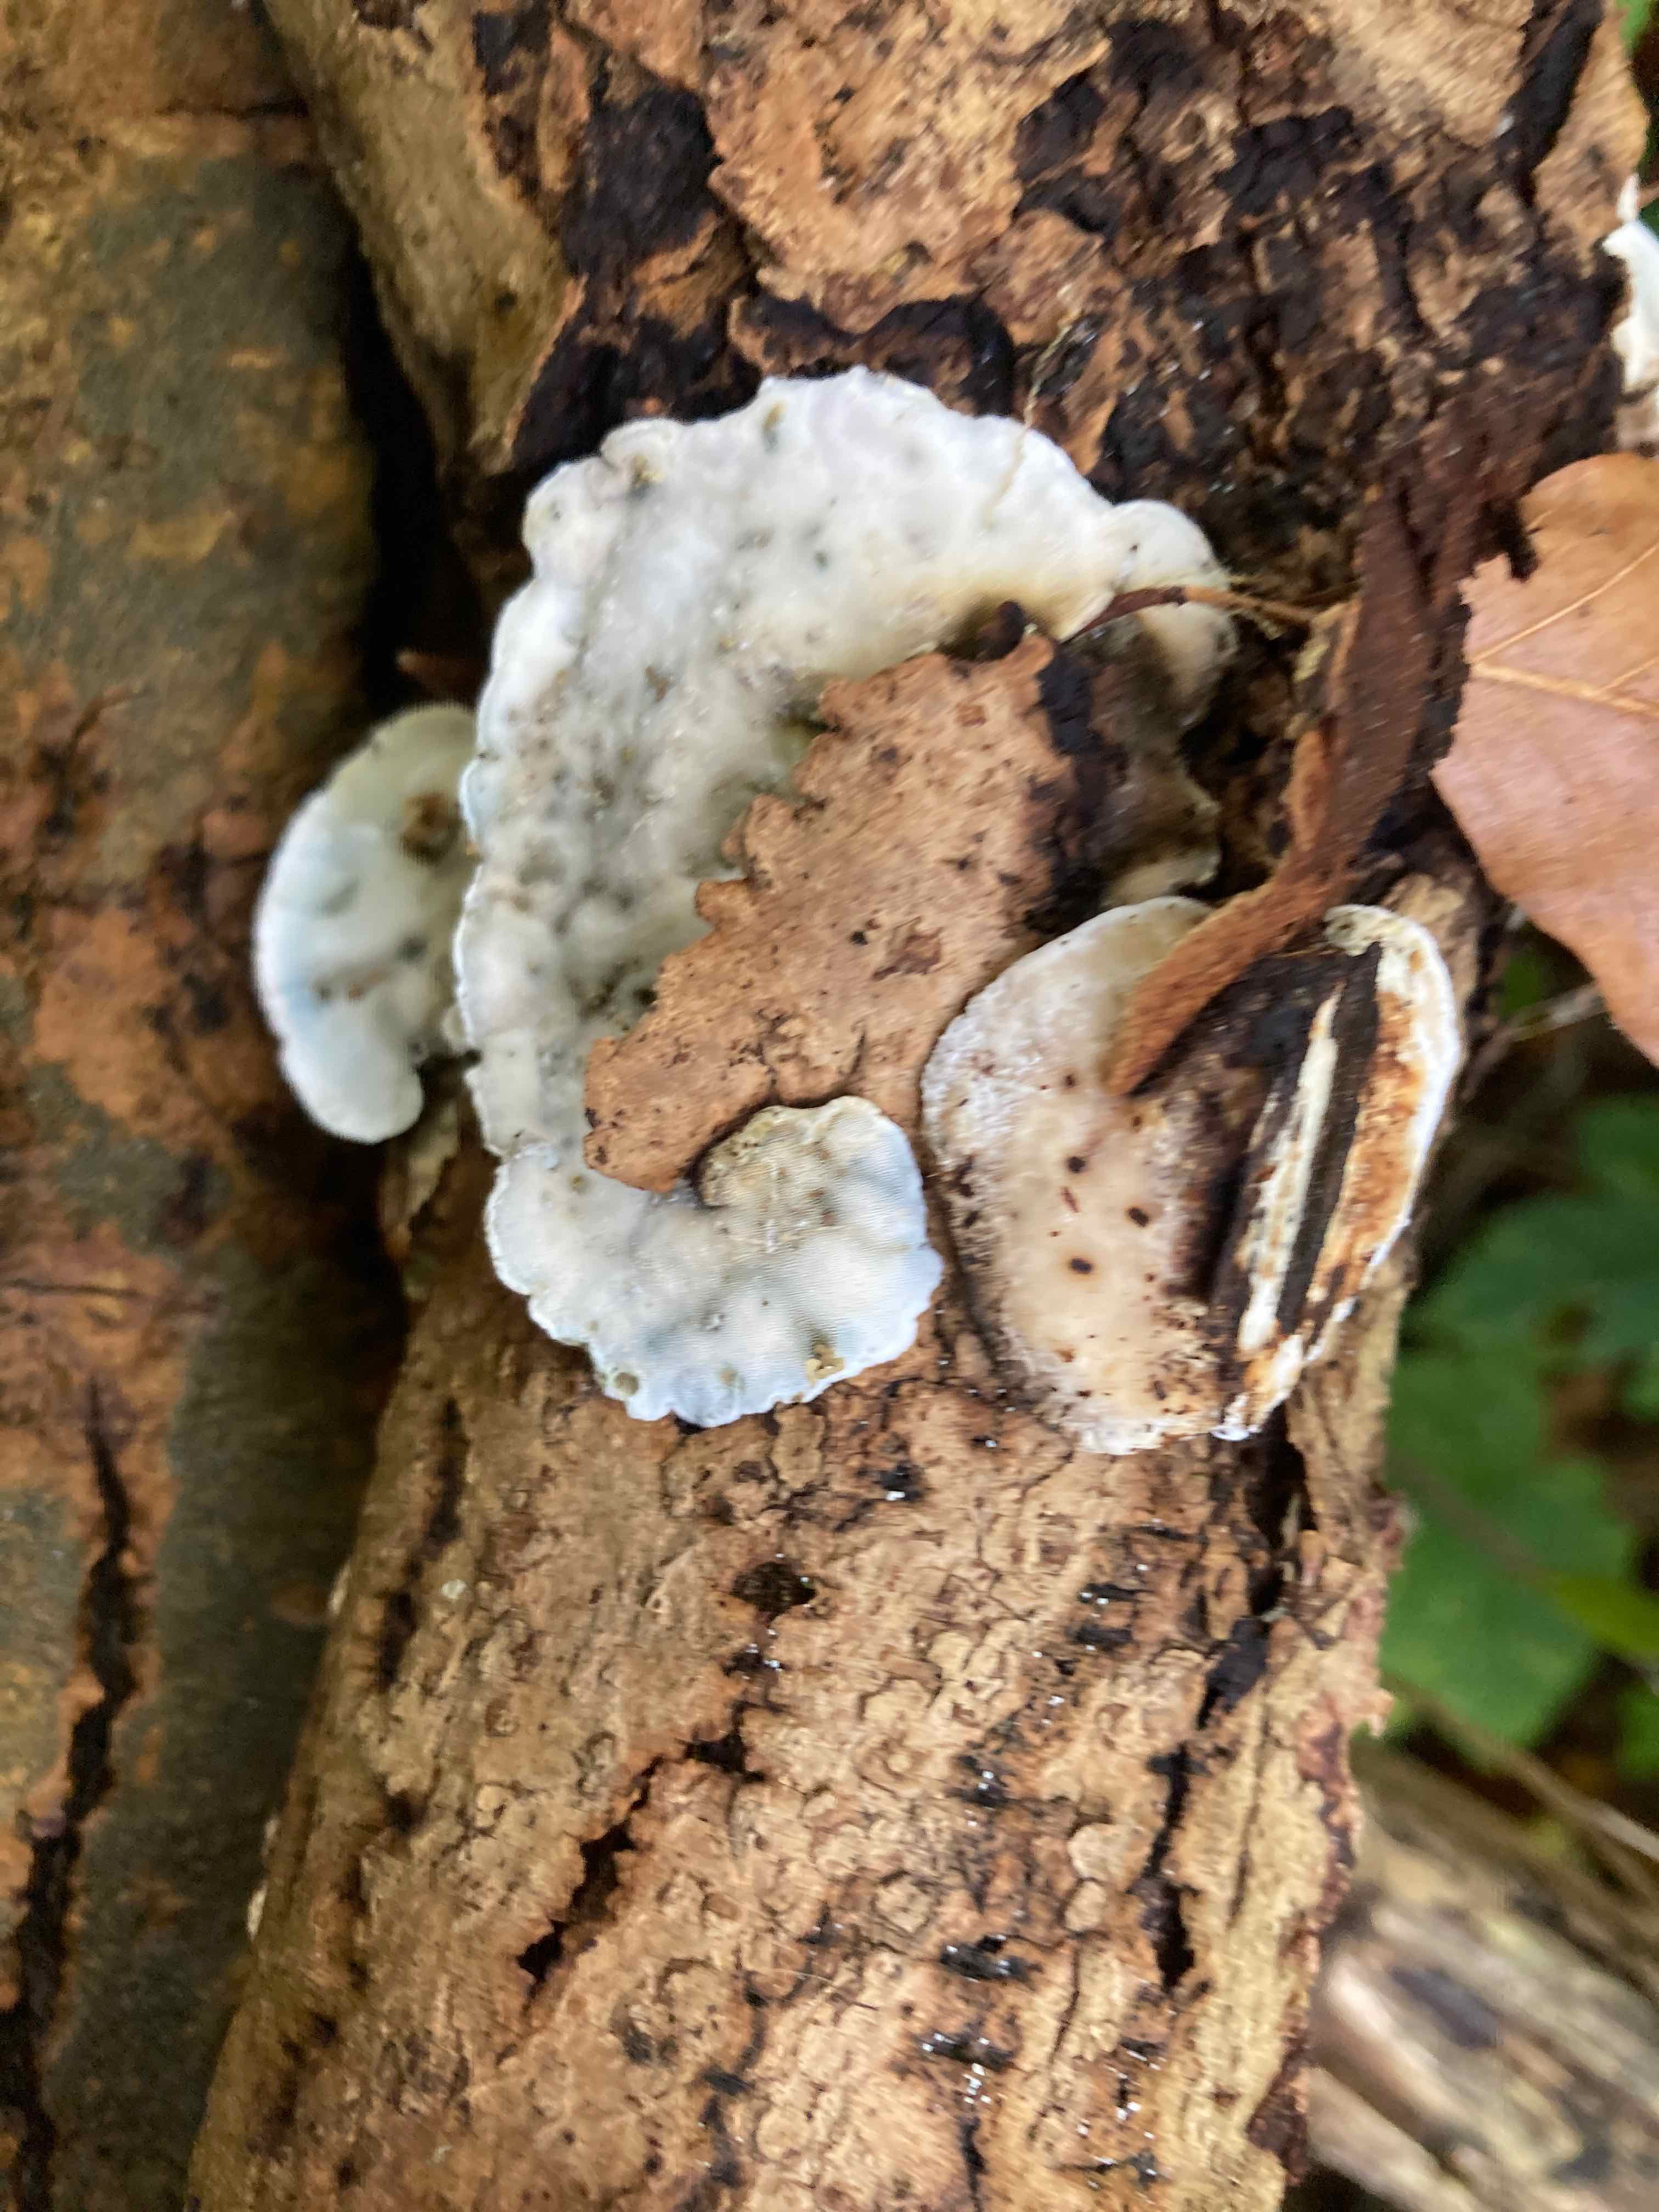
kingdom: Fungi
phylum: Basidiomycota
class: Agaricomycetes
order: Polyporales
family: Incrustoporiaceae
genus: Skeletocutis
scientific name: Skeletocutis nemoralis
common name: stor krystalporesvamp
